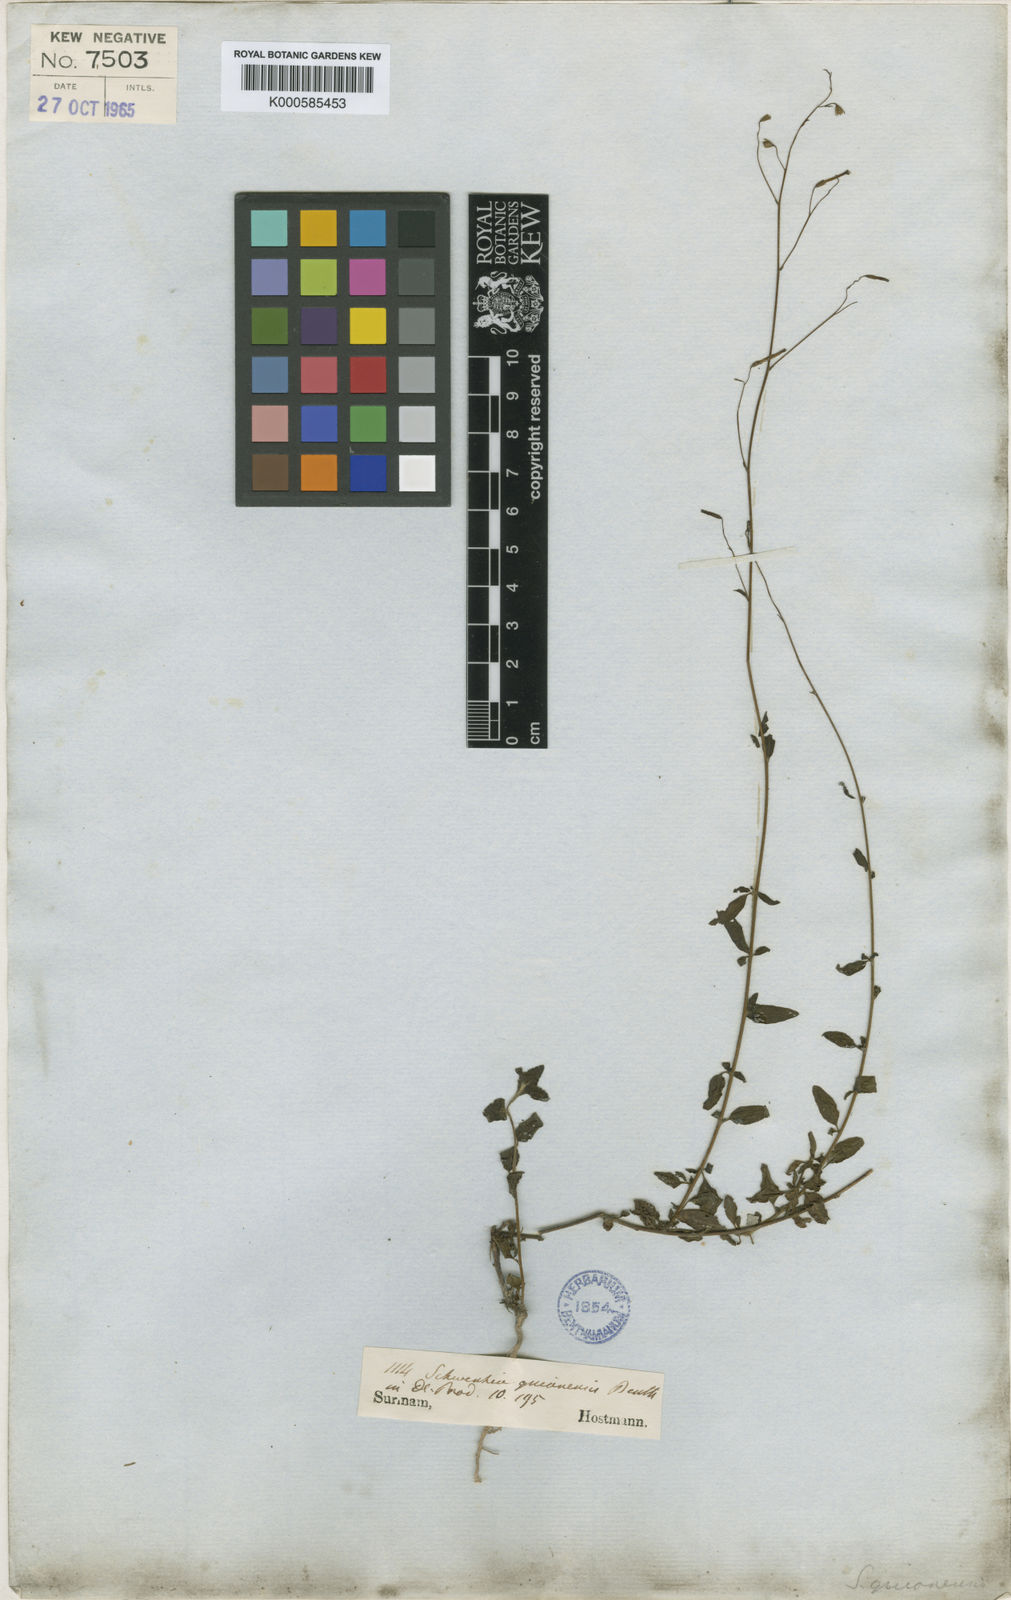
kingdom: Plantae
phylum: Tracheophyta
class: Magnoliopsida
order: Solanales
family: Solanaceae
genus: Schwenckia
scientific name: Schwenckia americana
